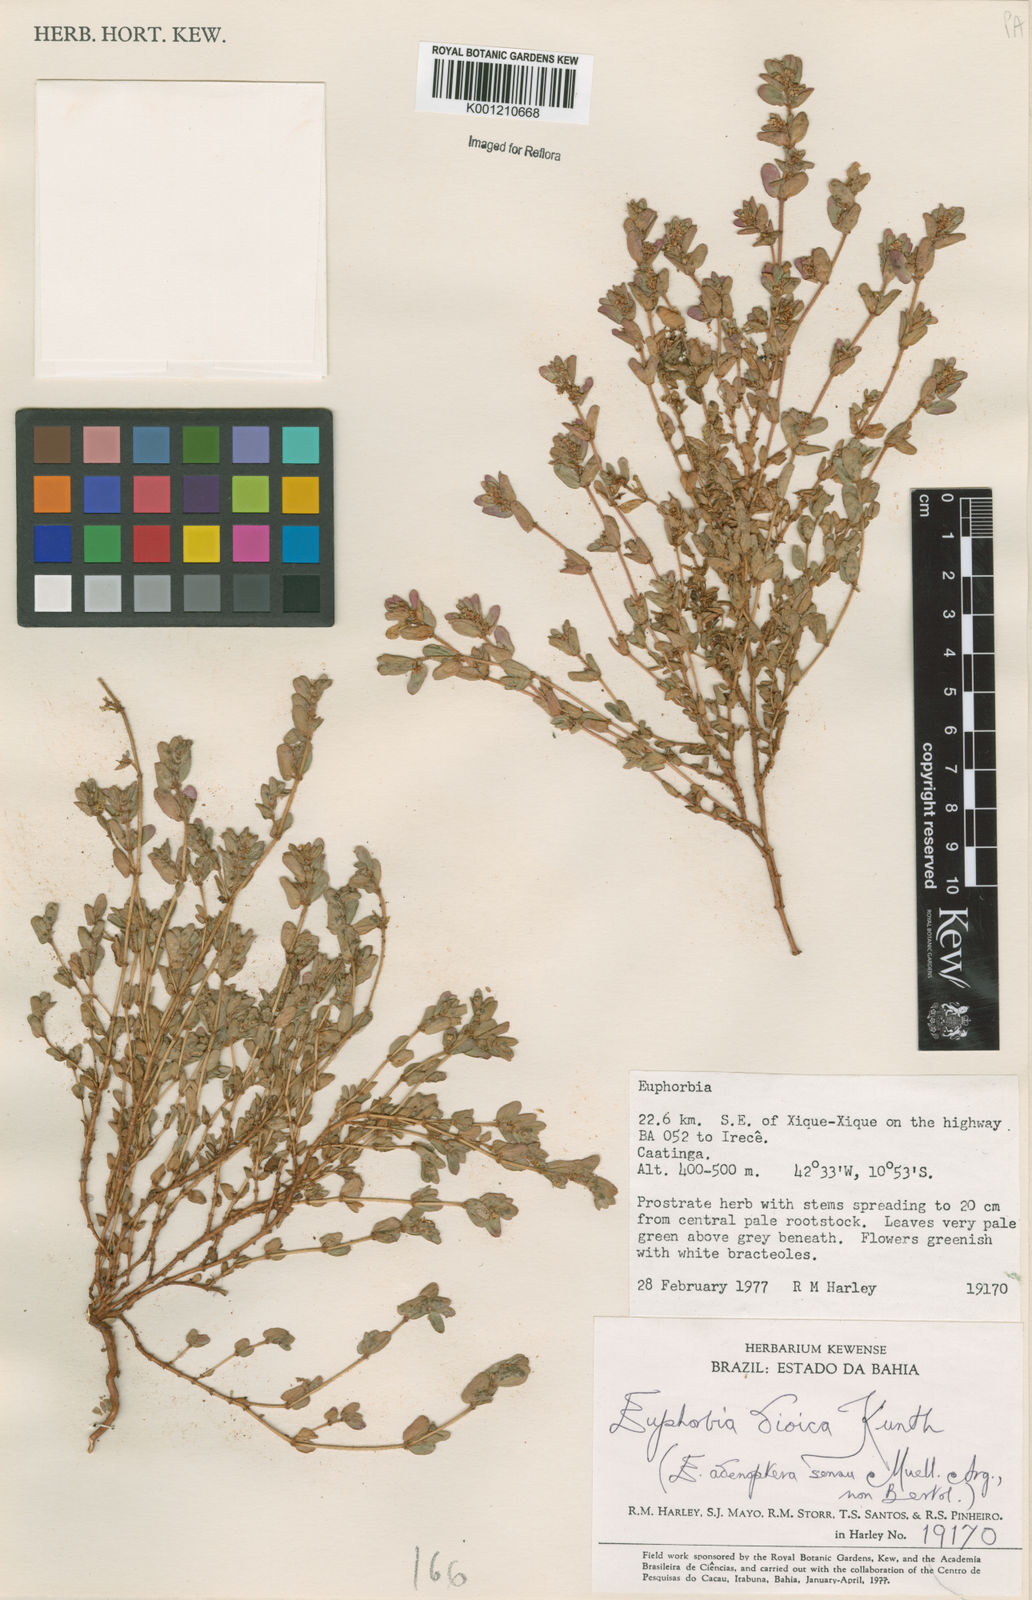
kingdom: Plantae
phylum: Tracheophyta
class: Magnoliopsida
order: Malpighiales
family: Euphorbiaceae
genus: Euphorbia
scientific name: Euphorbia
